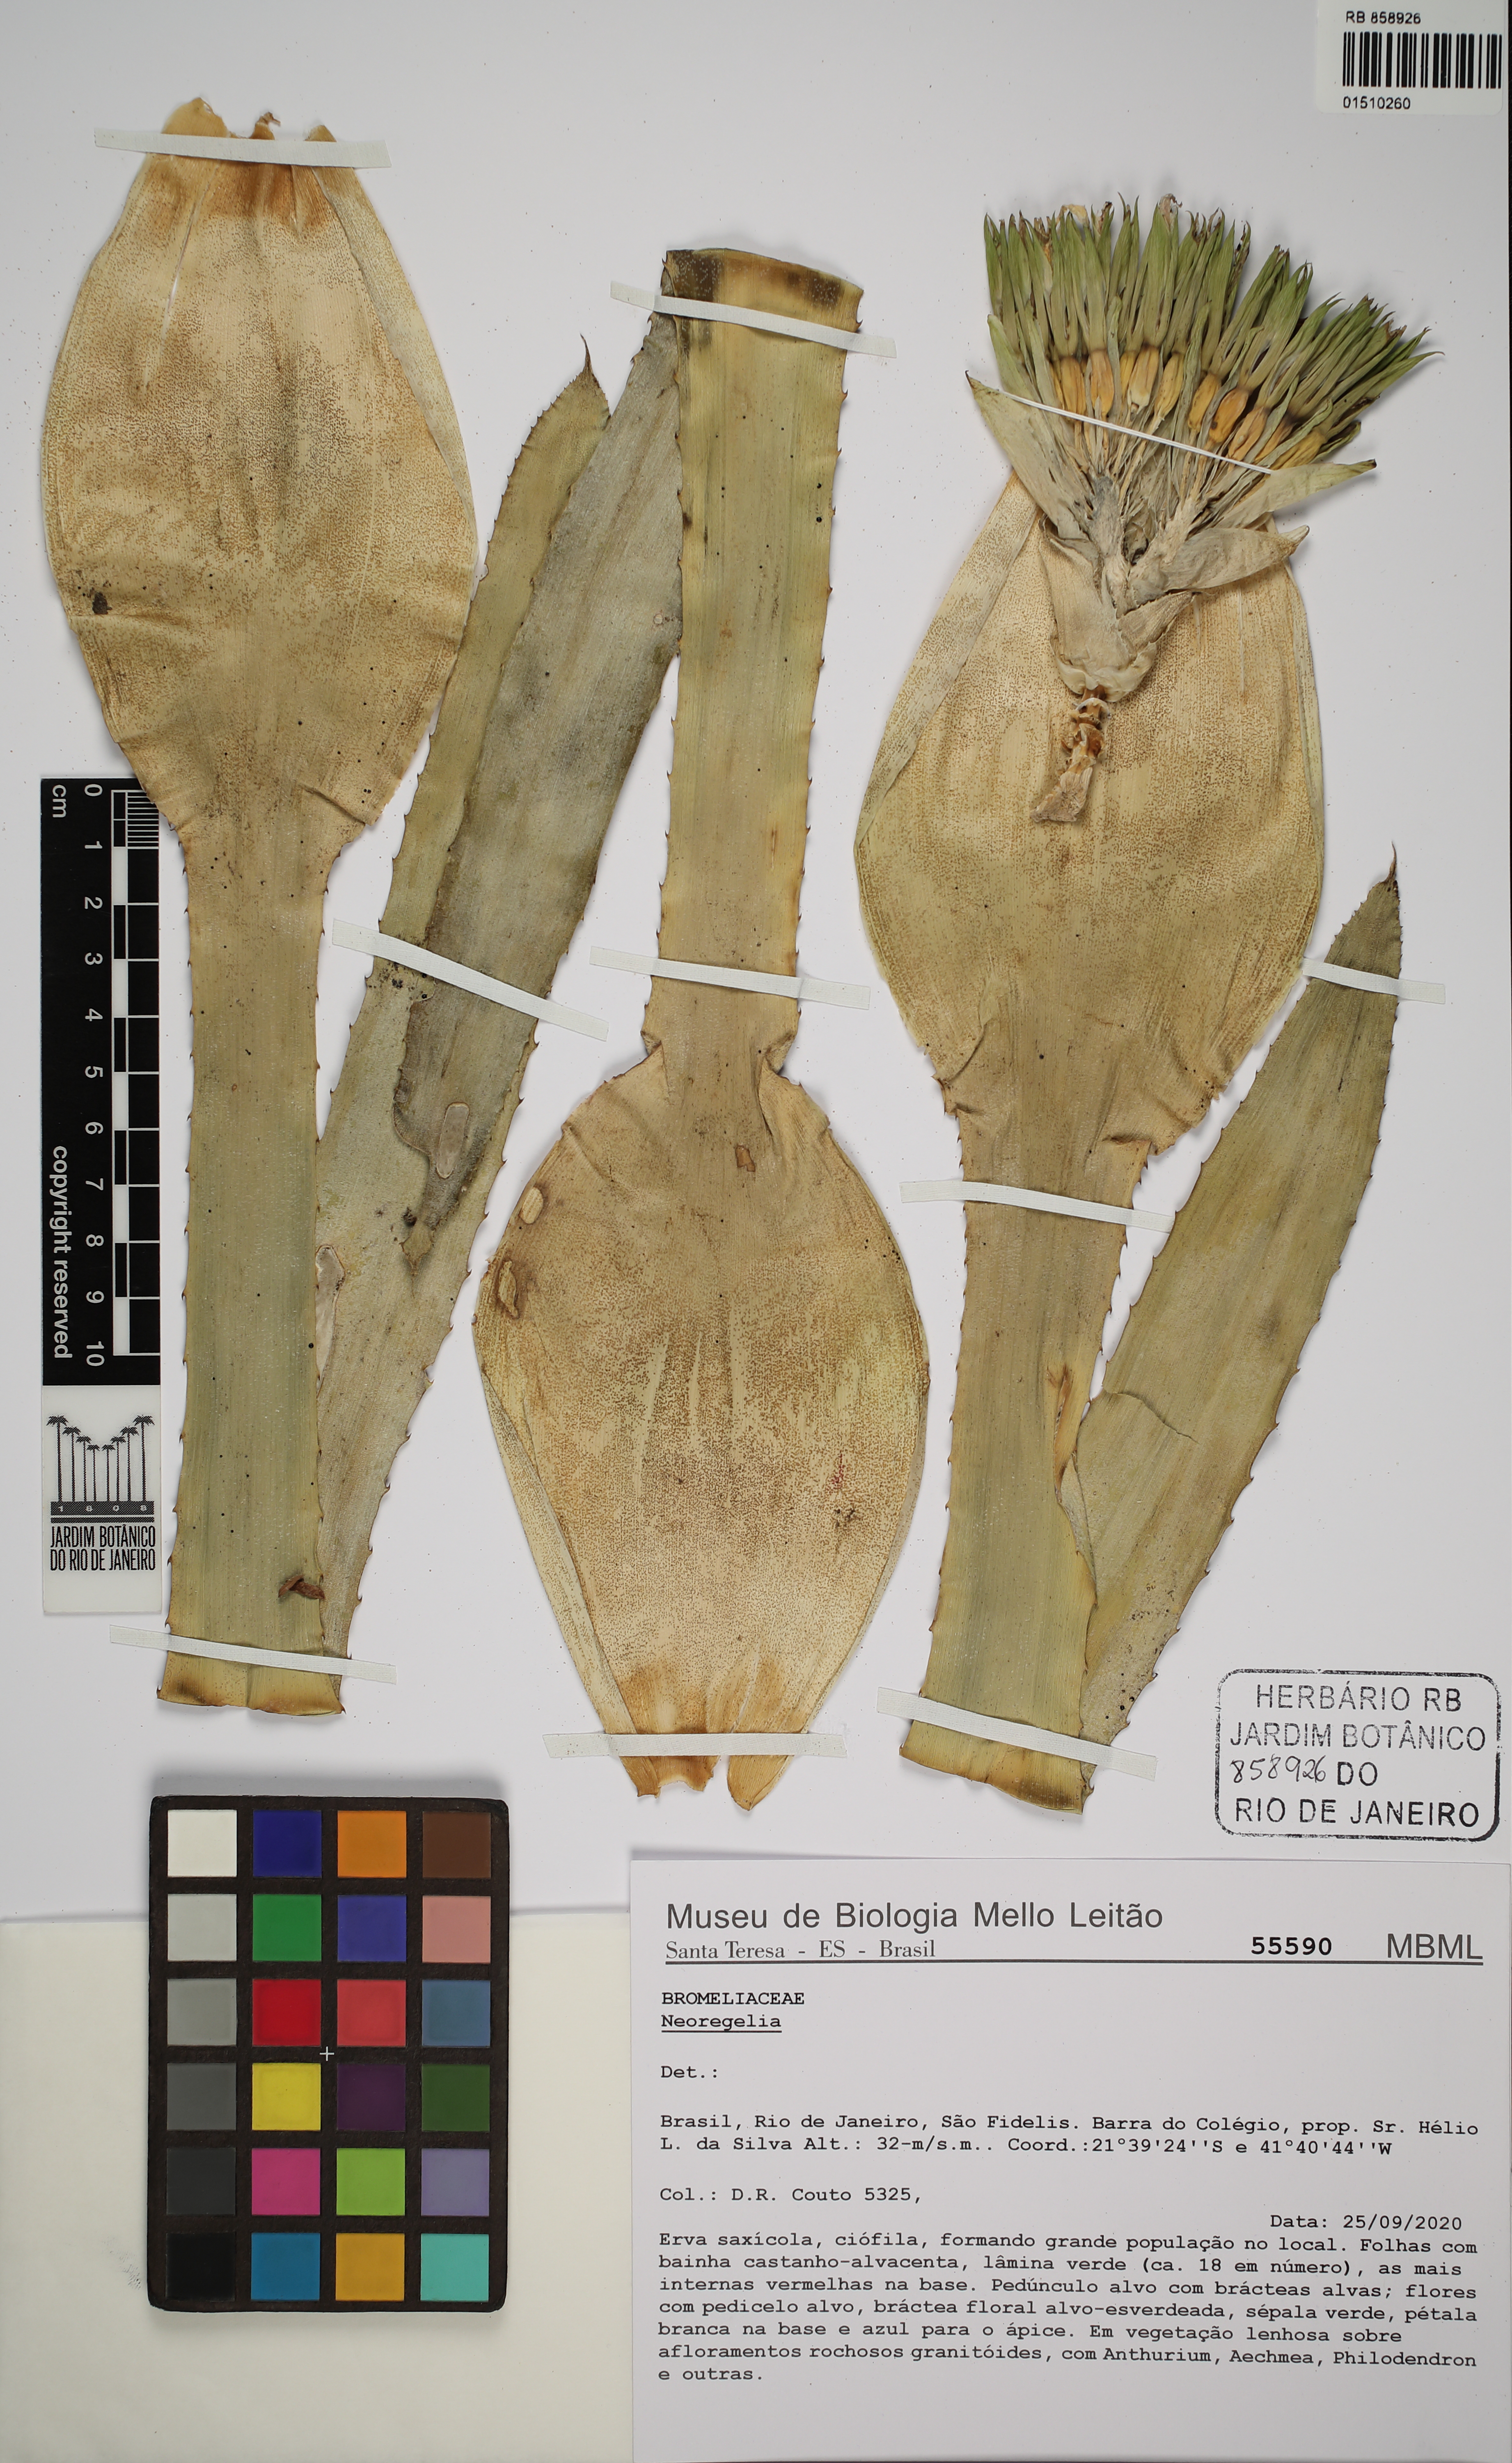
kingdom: Plantae
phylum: Tracheophyta
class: Liliopsida
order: Poales
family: Bromeliaceae
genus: Neoregelia
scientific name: Neoregelia
